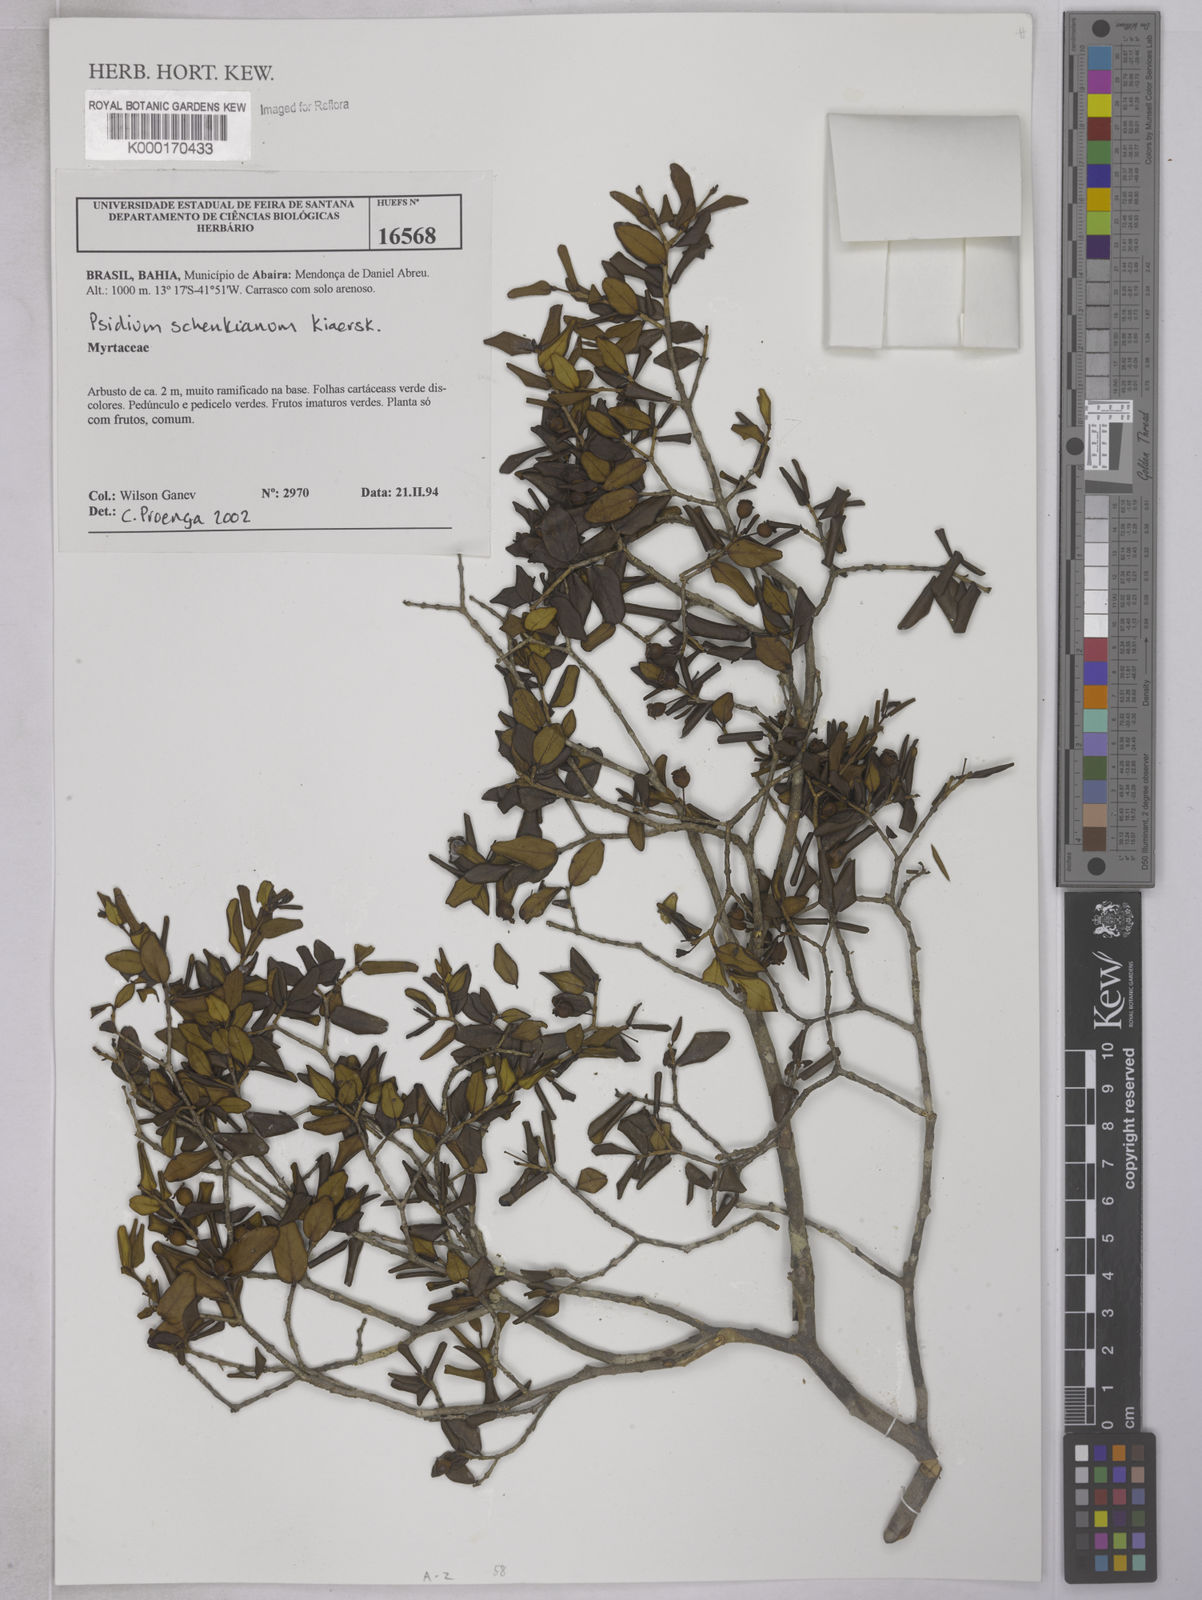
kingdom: Plantae
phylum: Tracheophyta
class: Magnoliopsida
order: Myrtales
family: Myrtaceae
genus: Psidium
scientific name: Psidium
